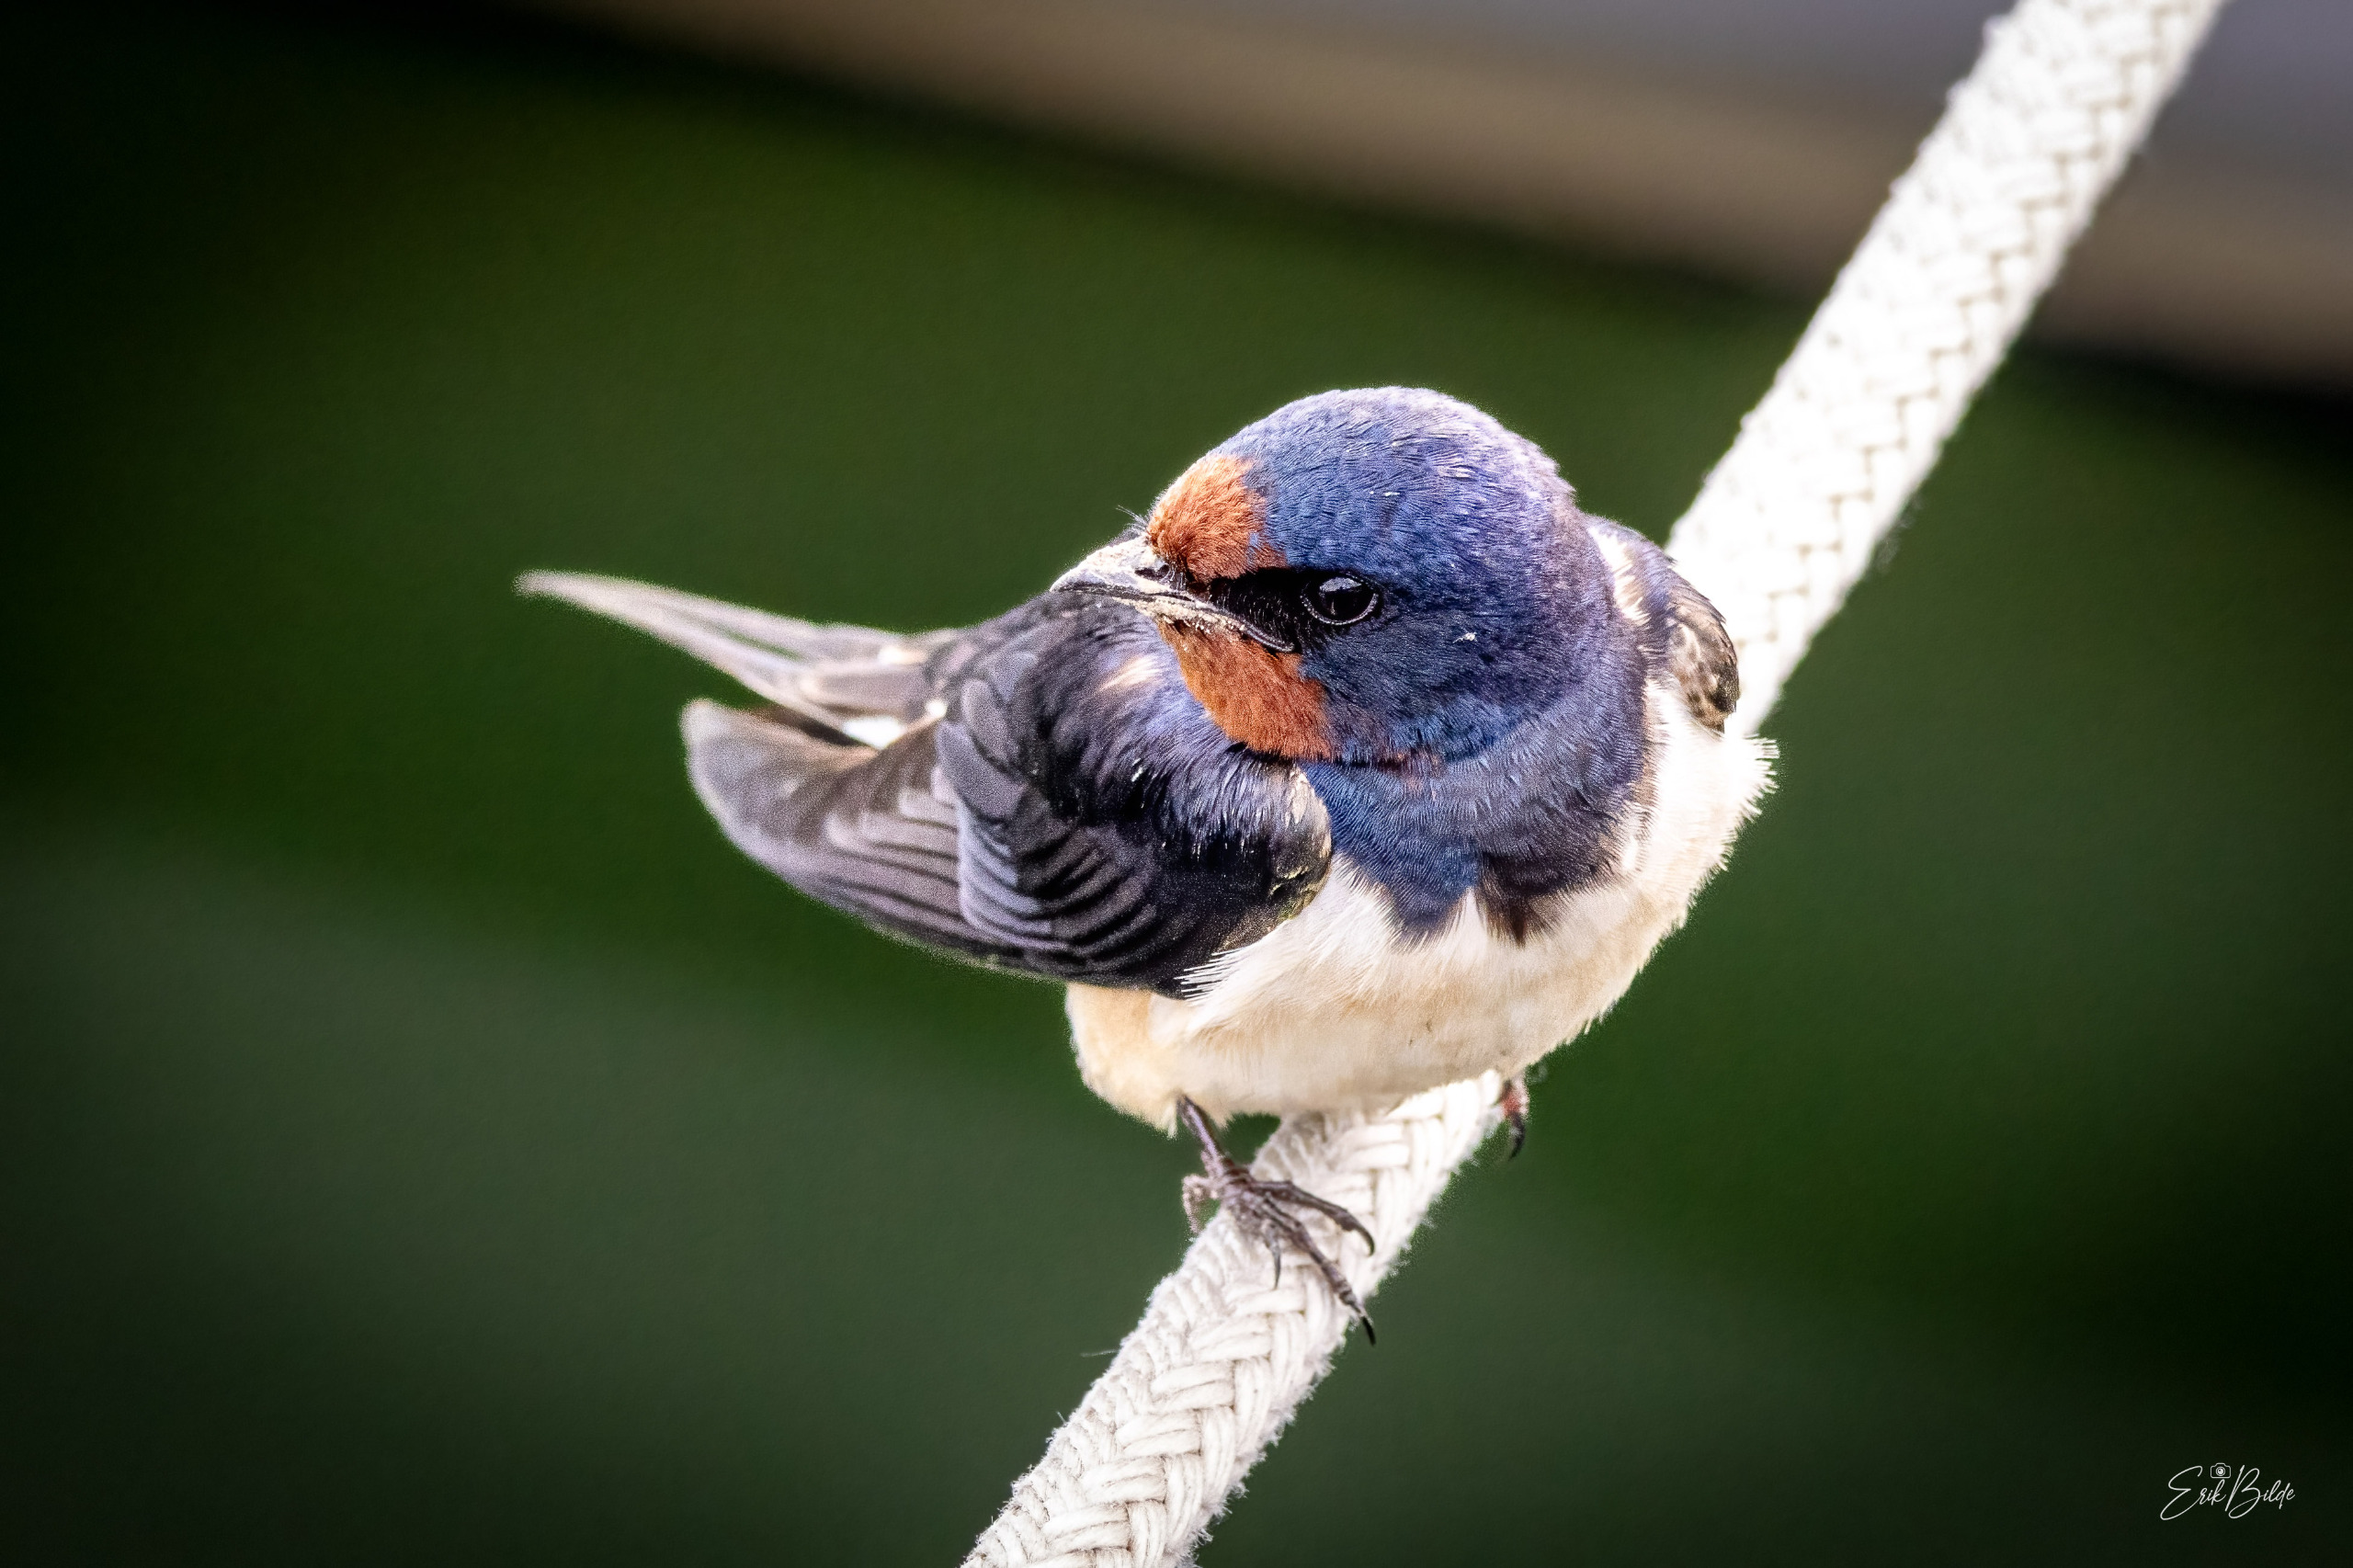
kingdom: Animalia
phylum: Chordata
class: Aves
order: Passeriformes
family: Hirundinidae
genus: Hirundo
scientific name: Hirundo rustica
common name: Landsvale
